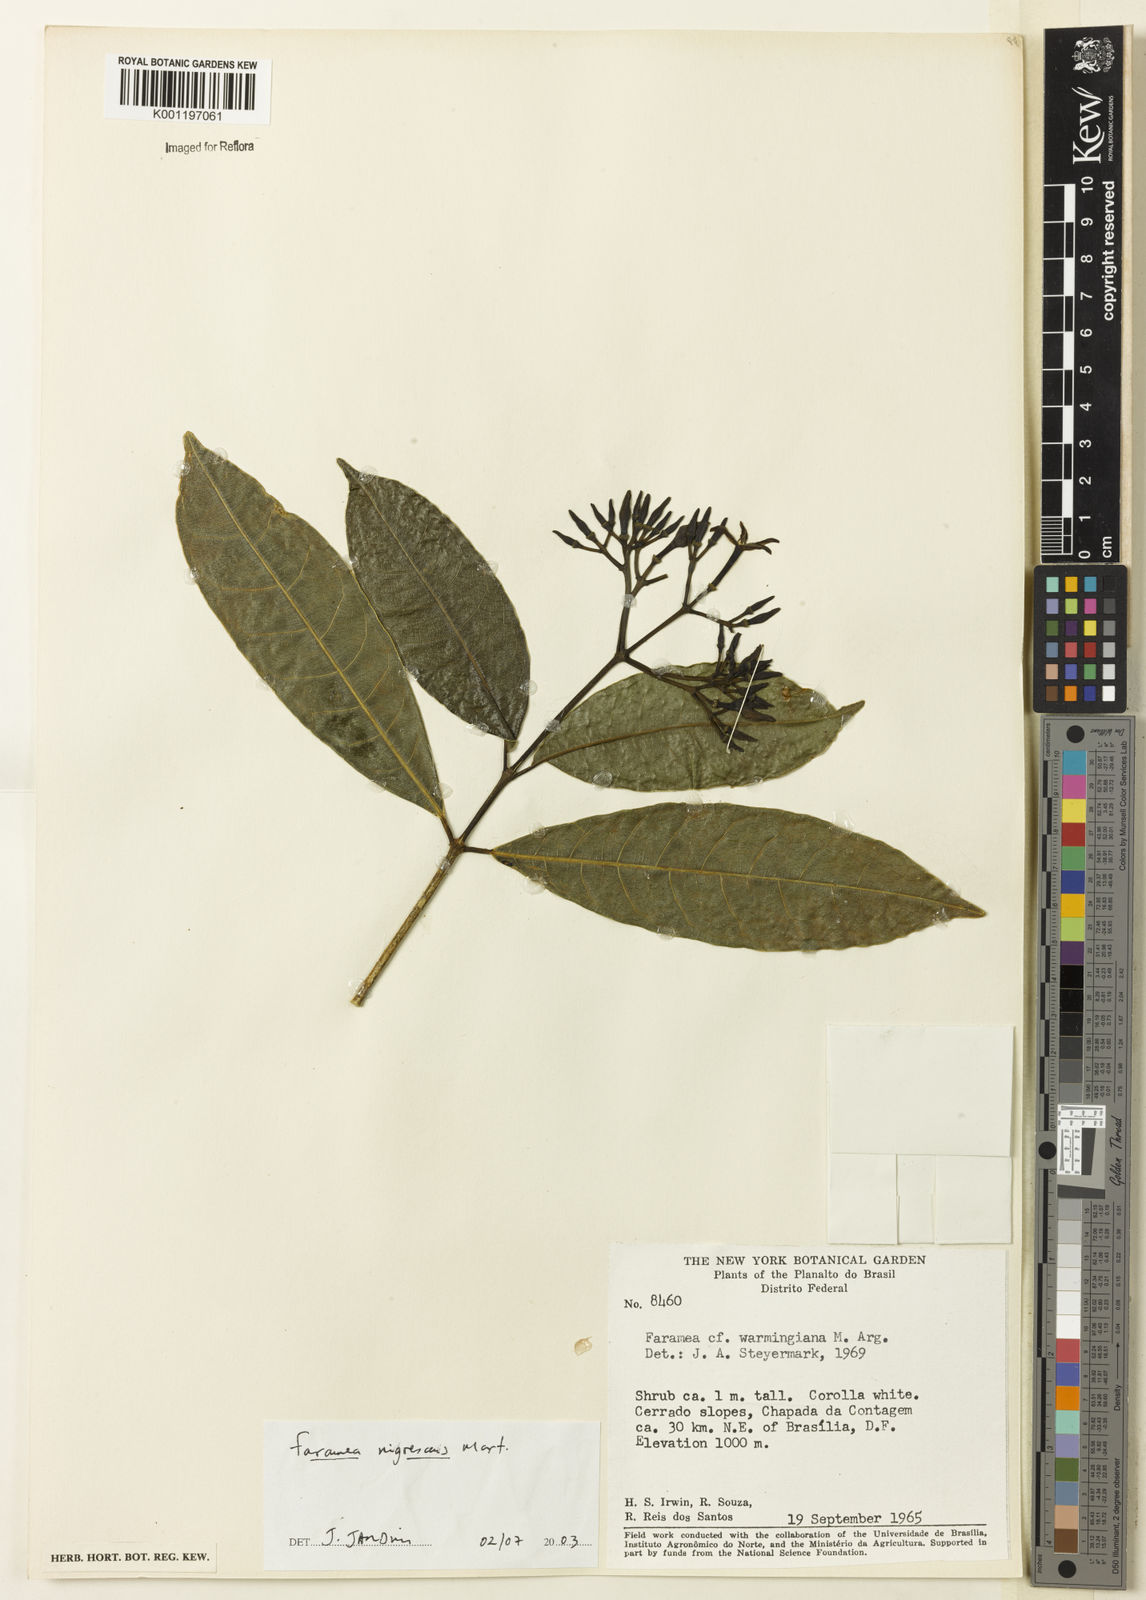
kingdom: Plantae
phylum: Tracheophyta
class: Magnoliopsida
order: Gentianales
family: Rubiaceae
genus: Faramea
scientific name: Faramea nigrescens
